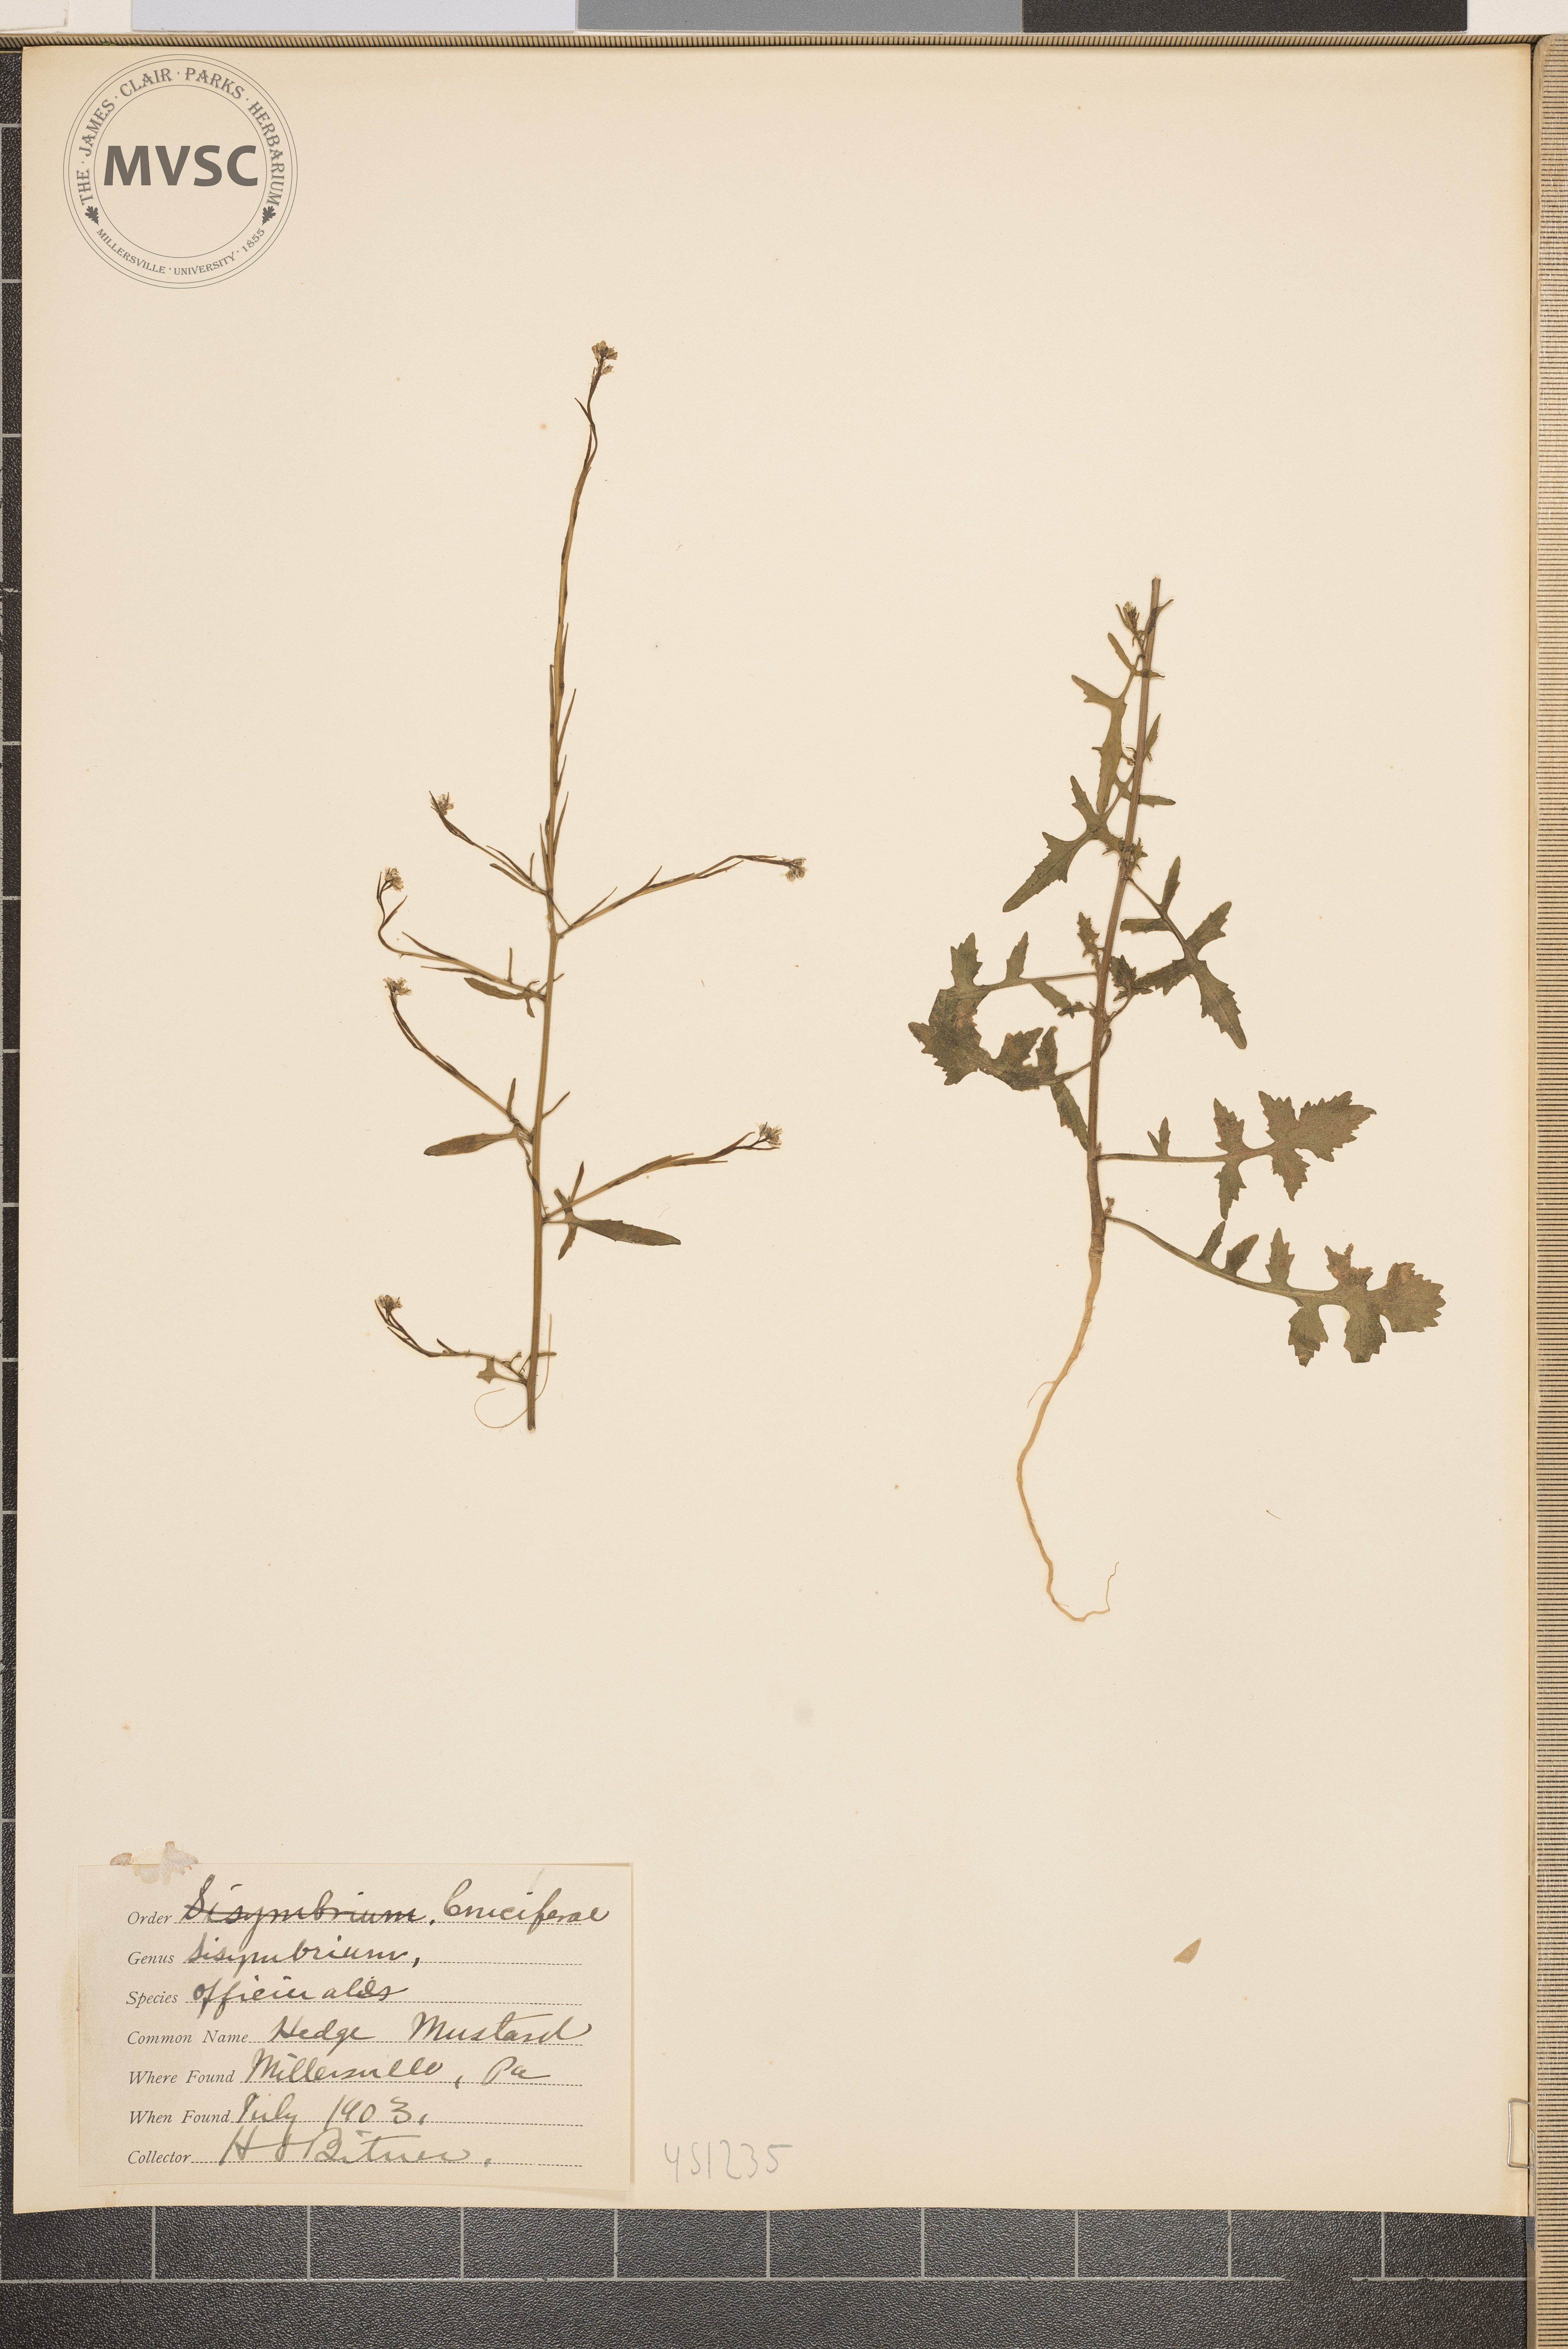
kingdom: Plantae
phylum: Tracheophyta
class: Magnoliopsida
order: Brassicales
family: Brassicaceae
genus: Sisymbrium
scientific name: Sisymbrium officinale
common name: Hedge mustard
